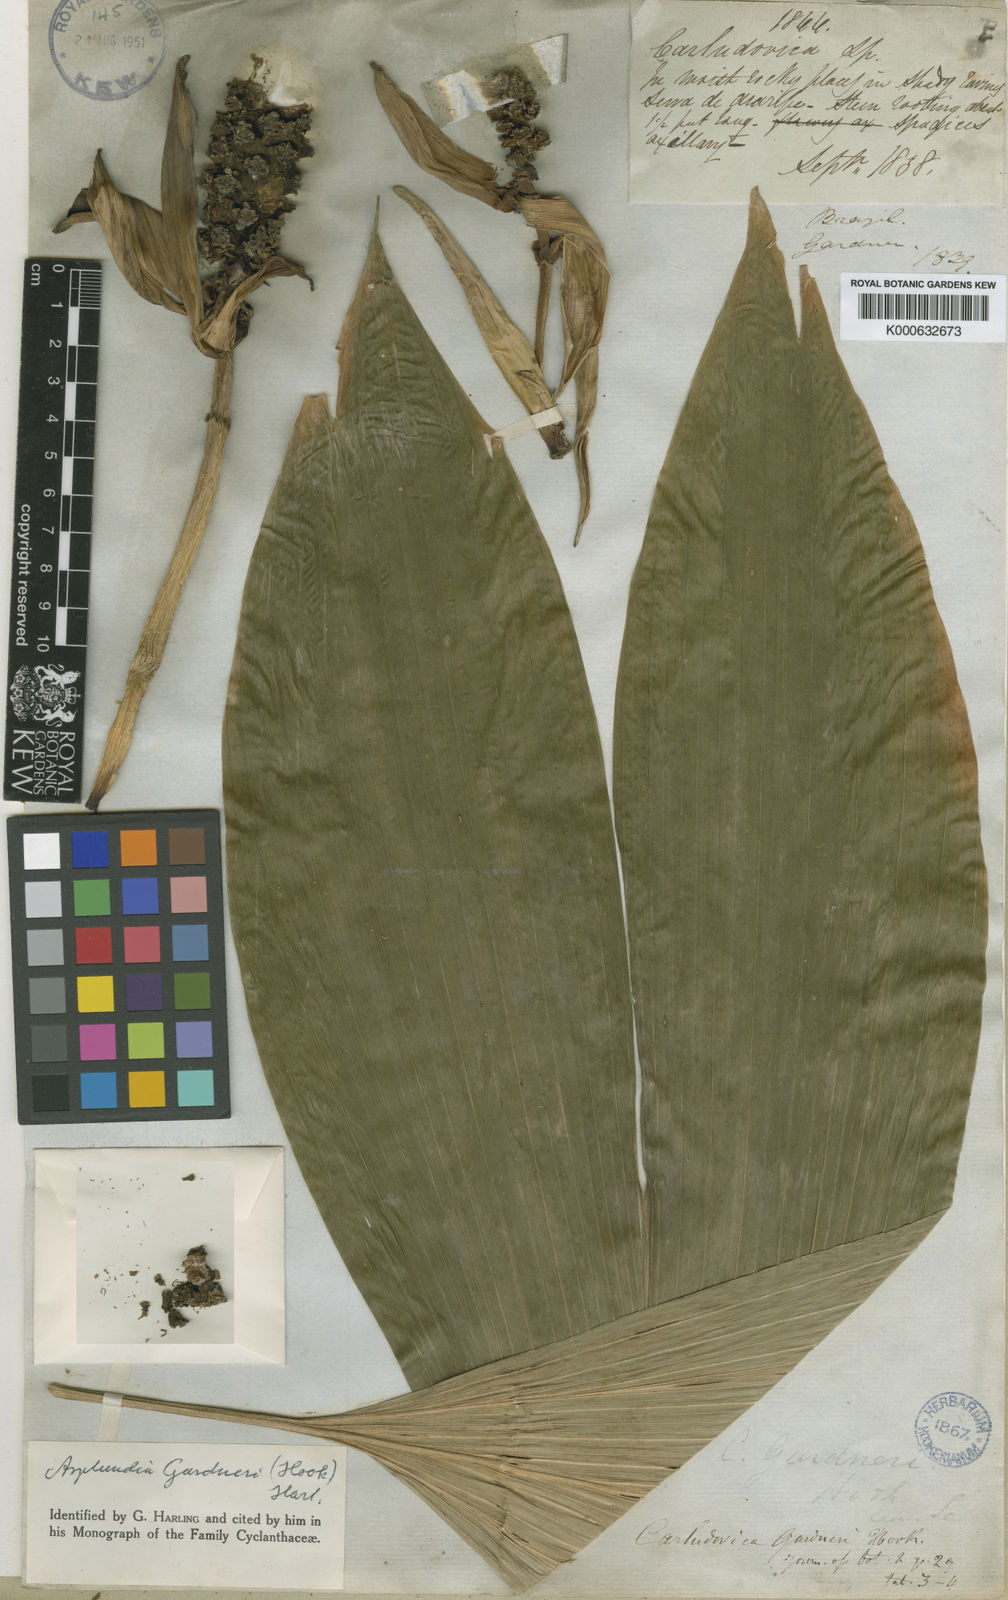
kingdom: Plantae
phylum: Tracheophyta
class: Liliopsida
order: Pandanales
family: Cyclanthaceae
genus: Asplundia
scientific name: Asplundia gardneri
